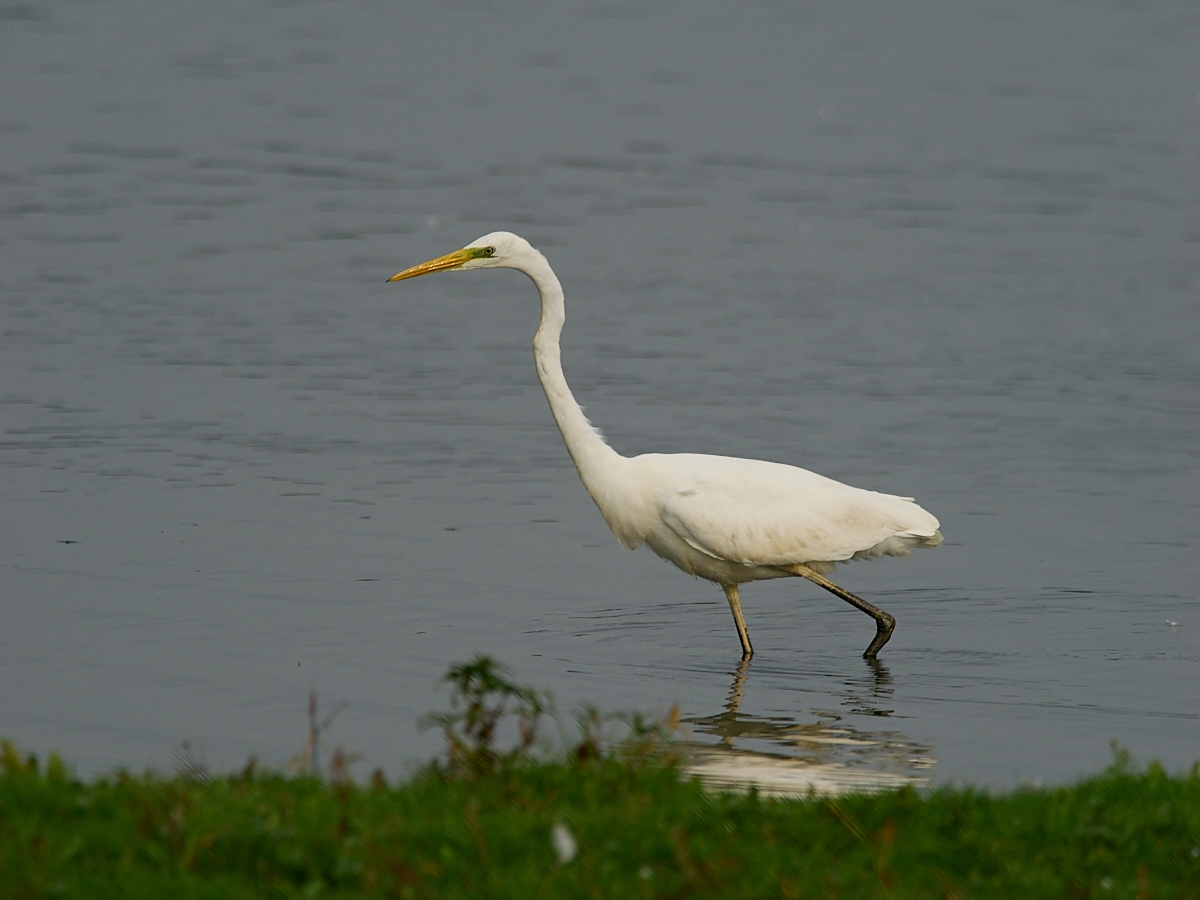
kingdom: Animalia
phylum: Chordata
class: Aves
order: Pelecaniformes
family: Ardeidae
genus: Ardea
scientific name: Ardea alba
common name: Sølvhejre
